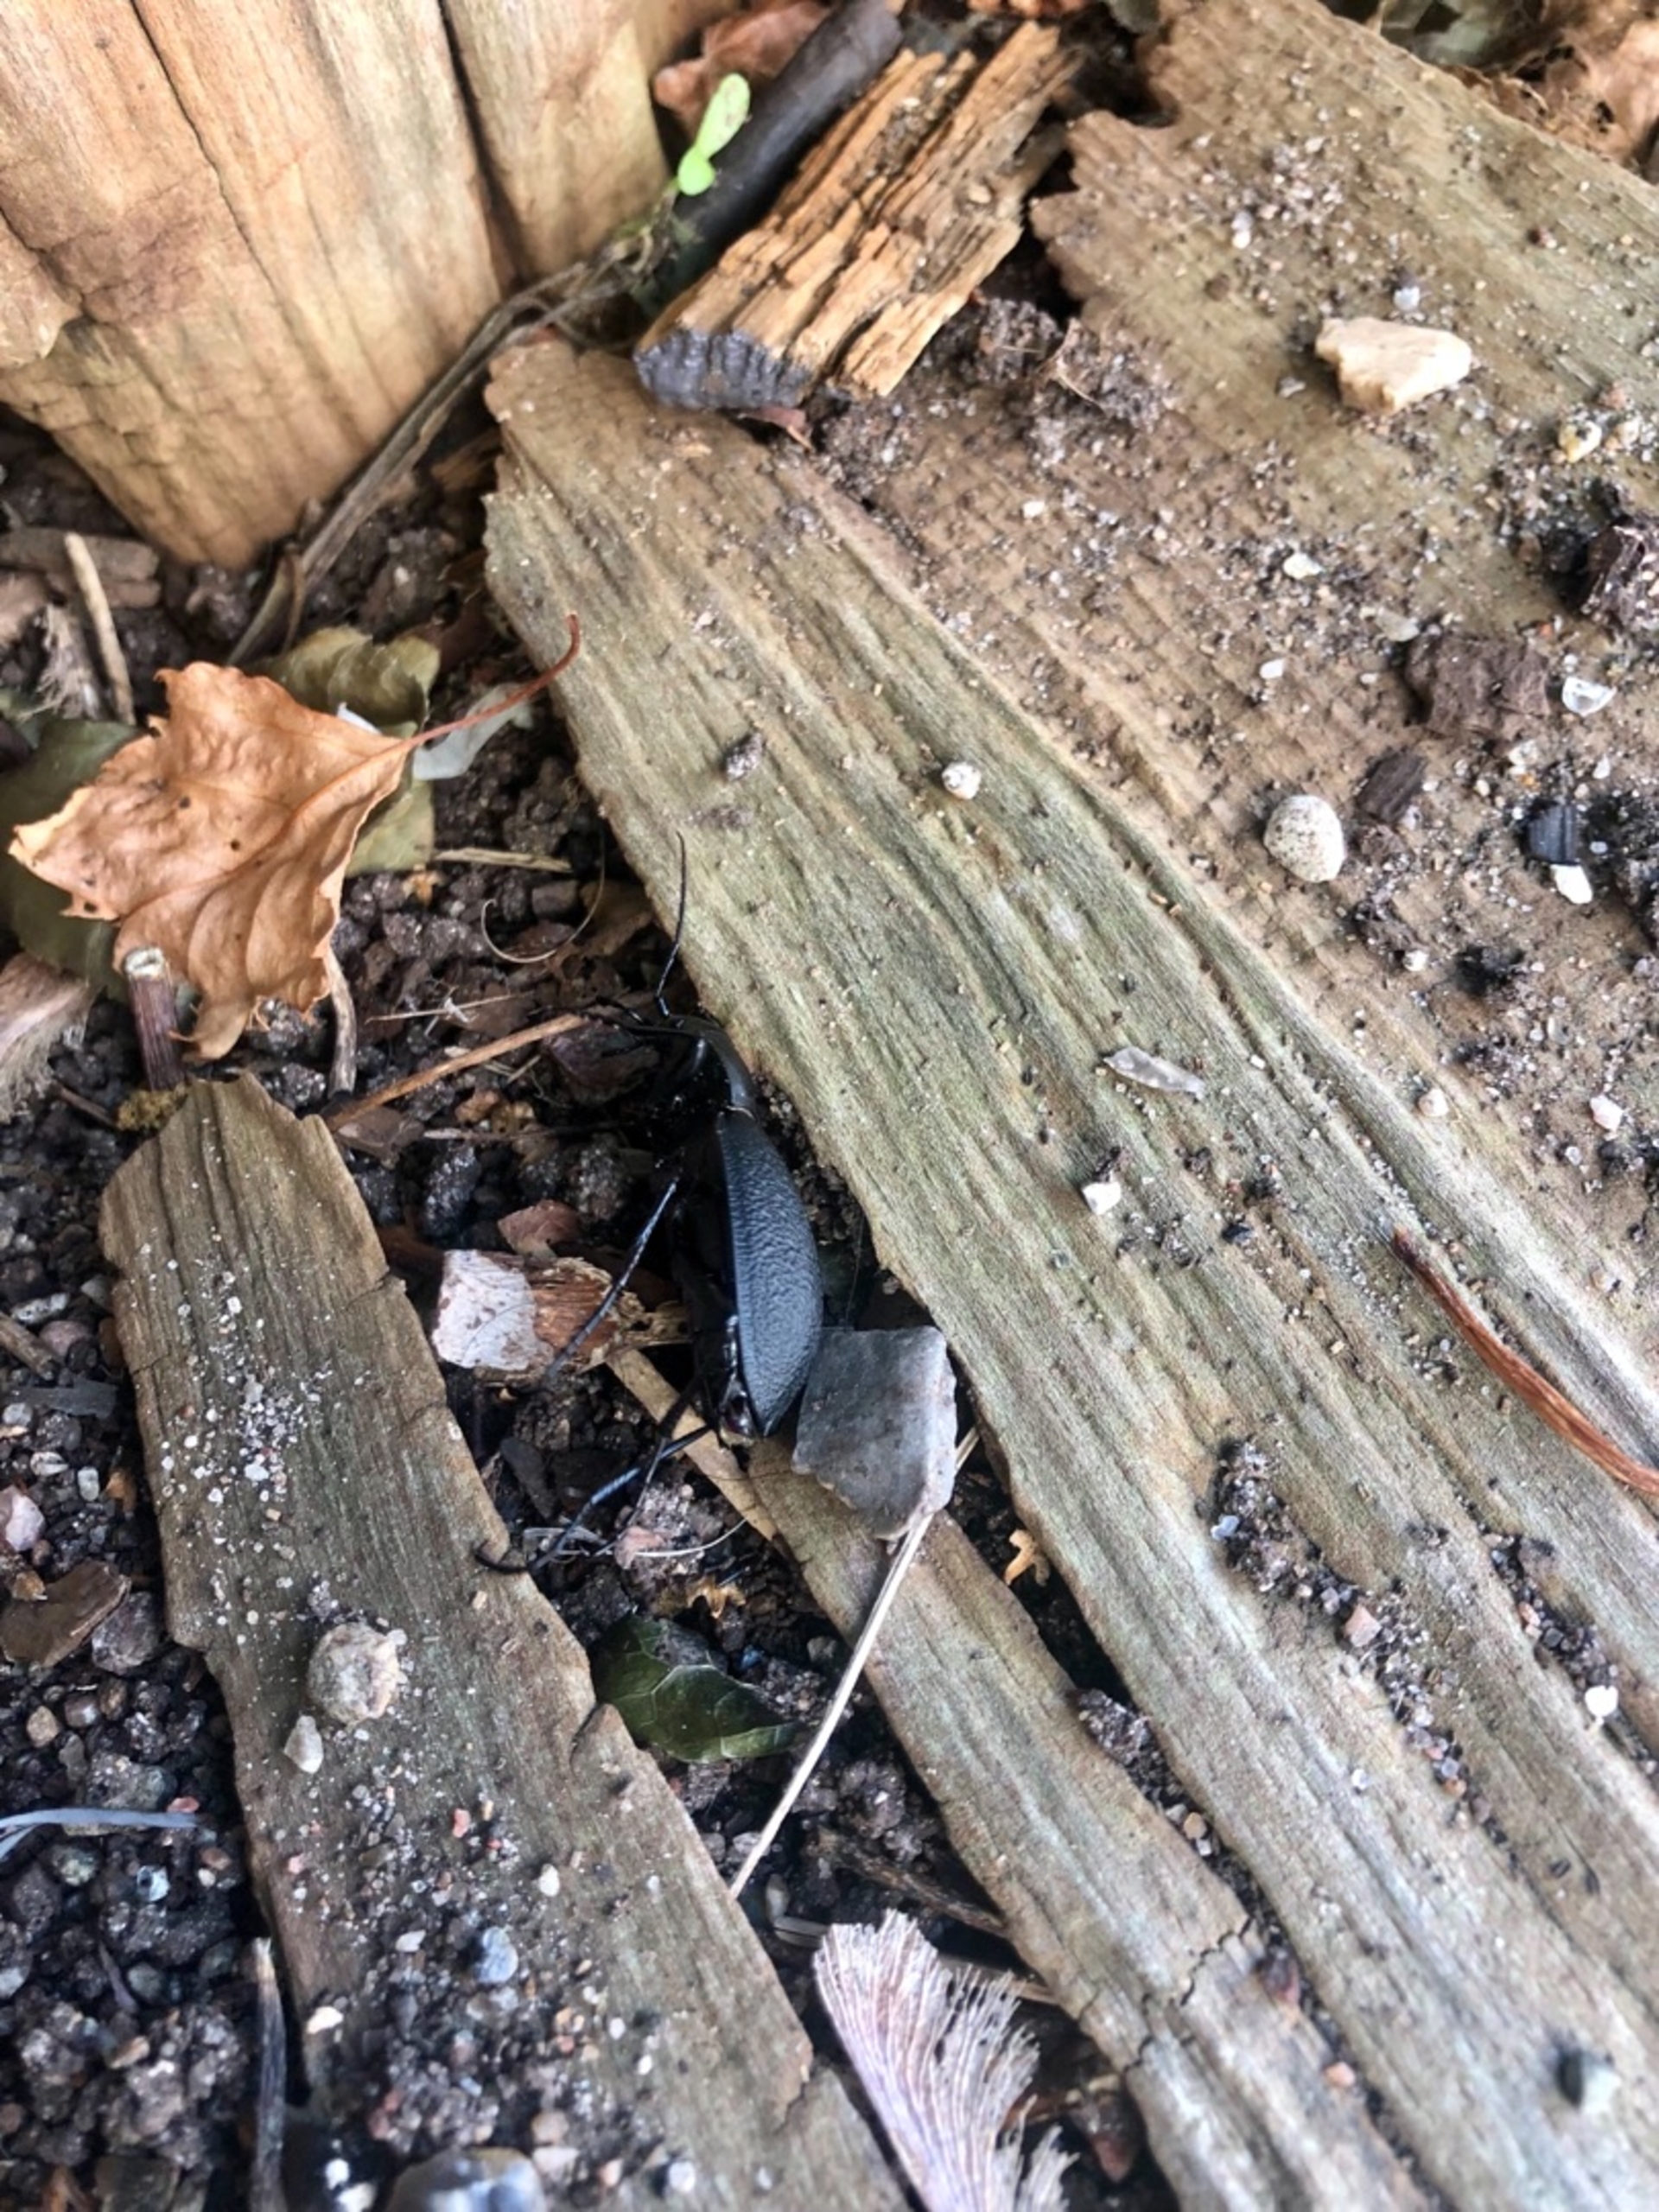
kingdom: Animalia
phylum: Arthropoda
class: Insecta
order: Coleoptera
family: Carabidae
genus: Carabus
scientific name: Carabus coriaceus
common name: Læderløber
